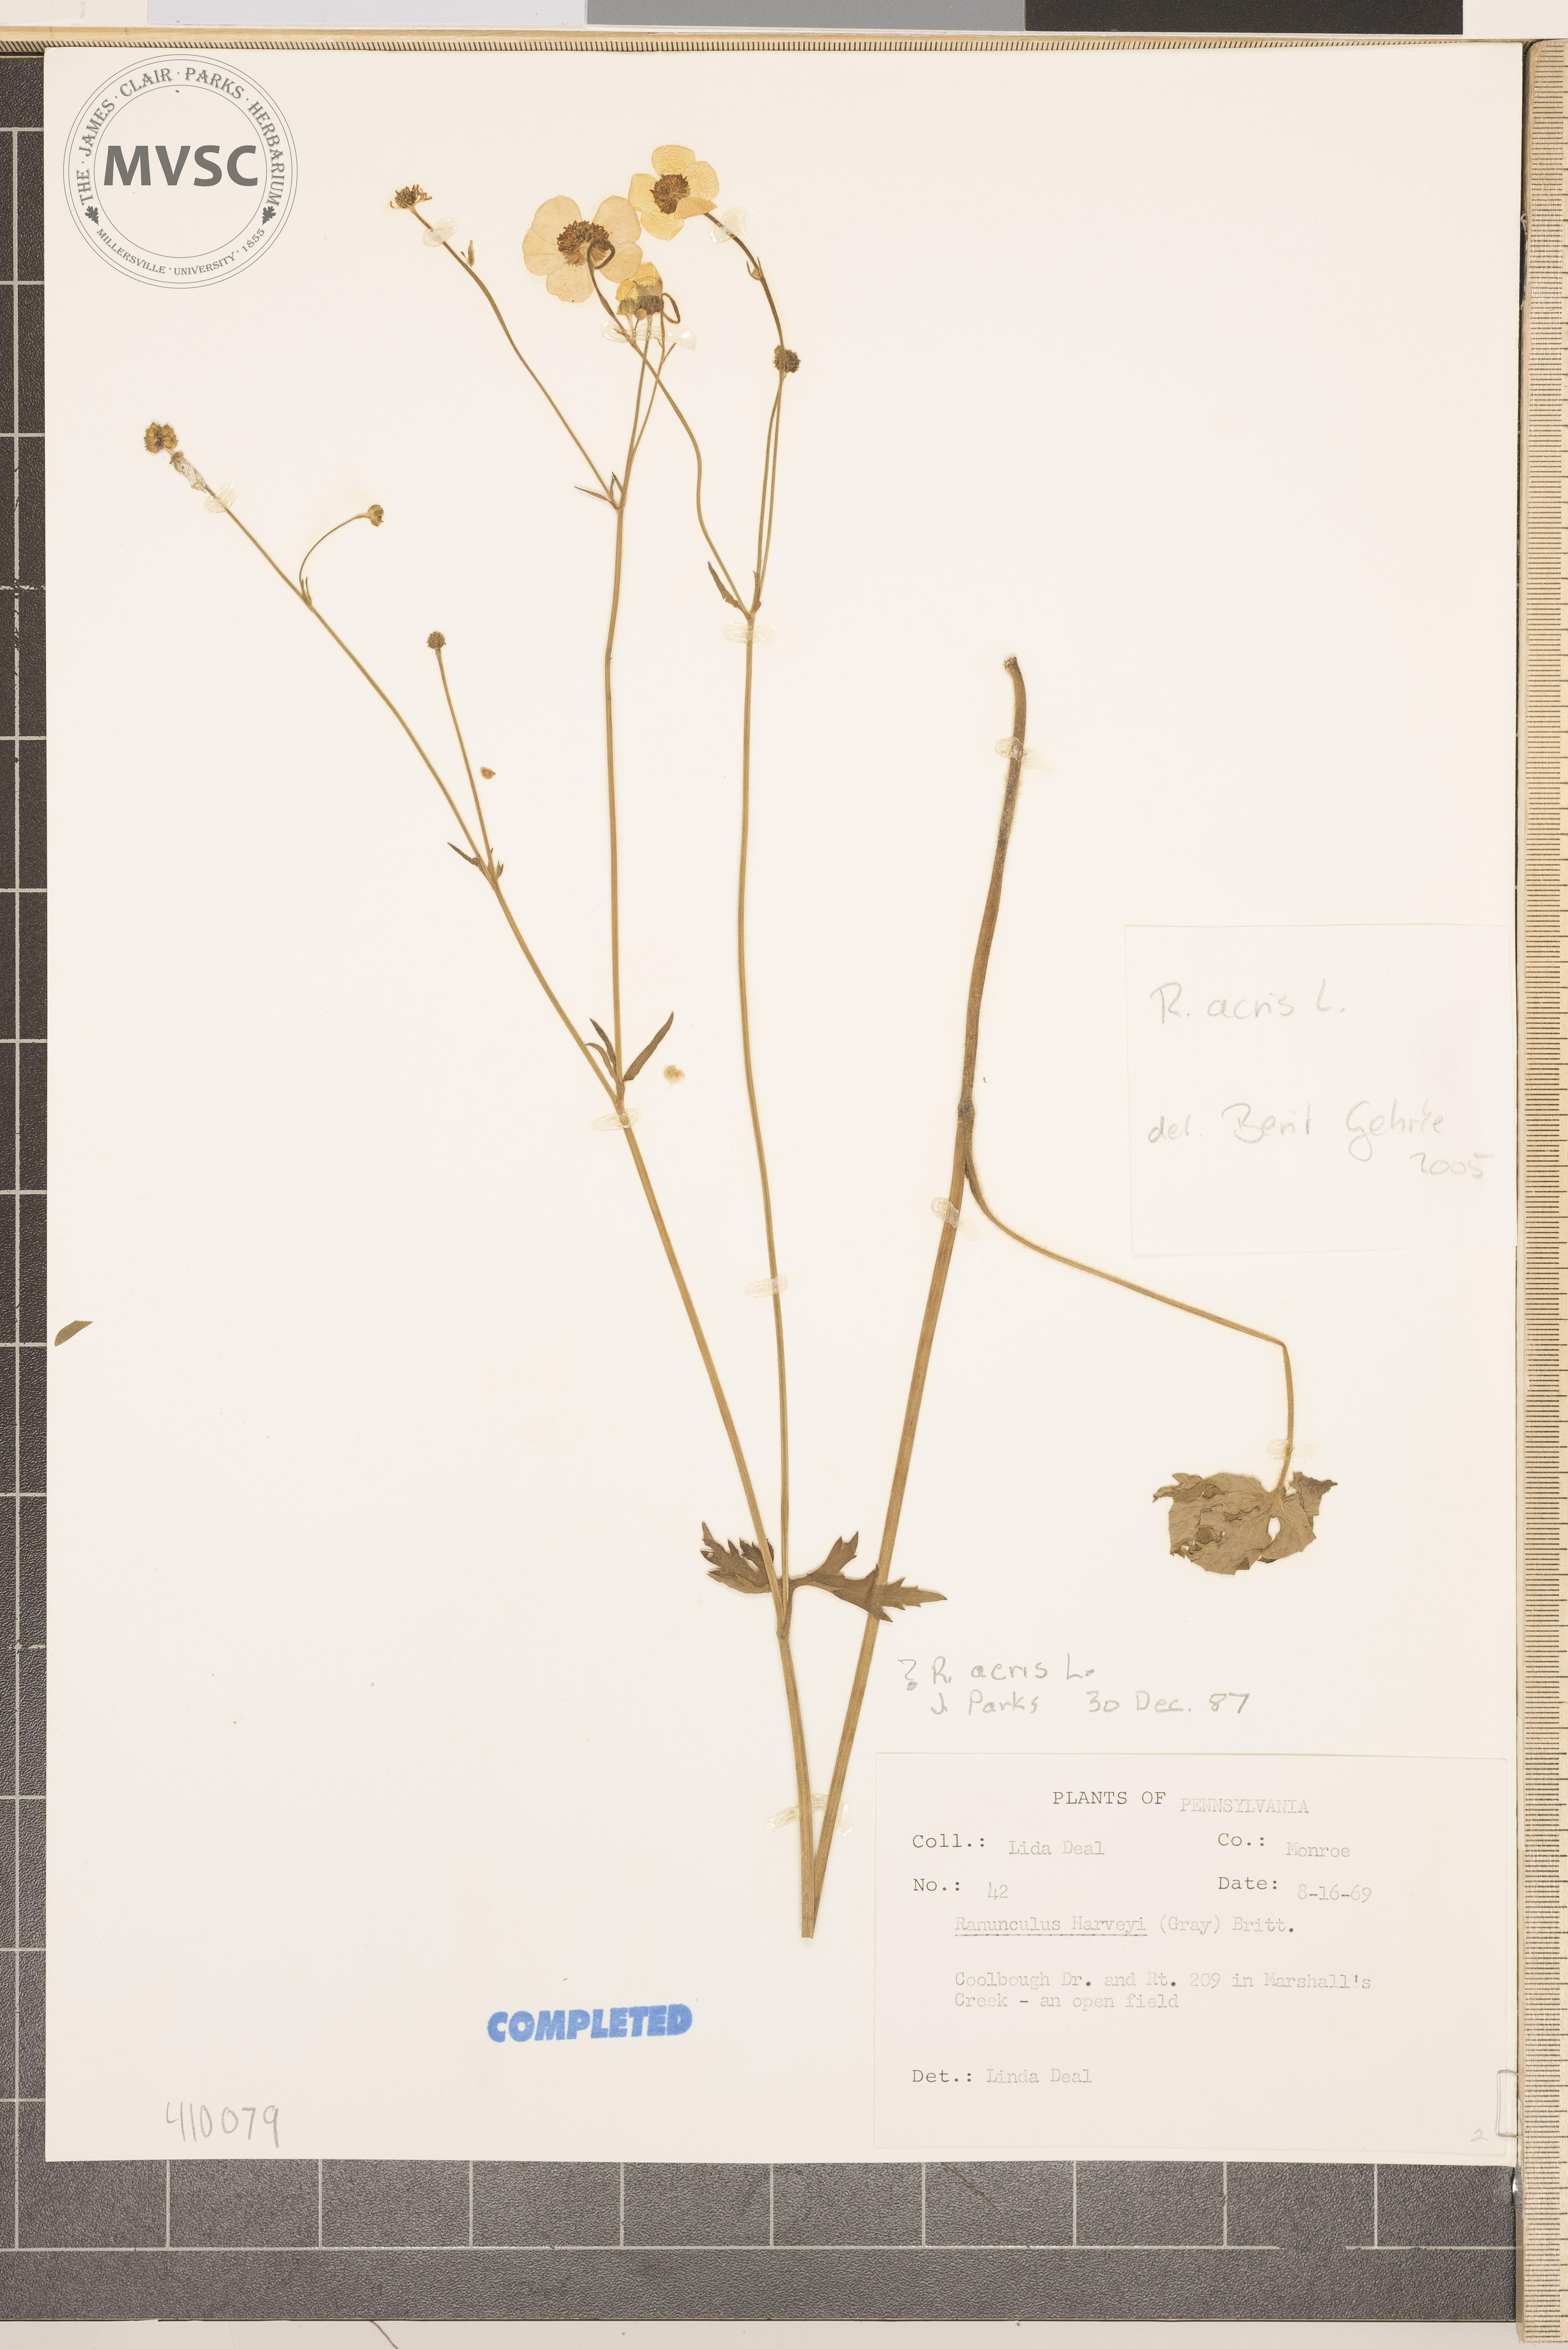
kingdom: Plantae
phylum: Tracheophyta
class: Magnoliopsida
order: Ranunculales
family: Ranunculaceae
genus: Ranunculus
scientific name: Ranunculus acris
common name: Meadow buttercup
